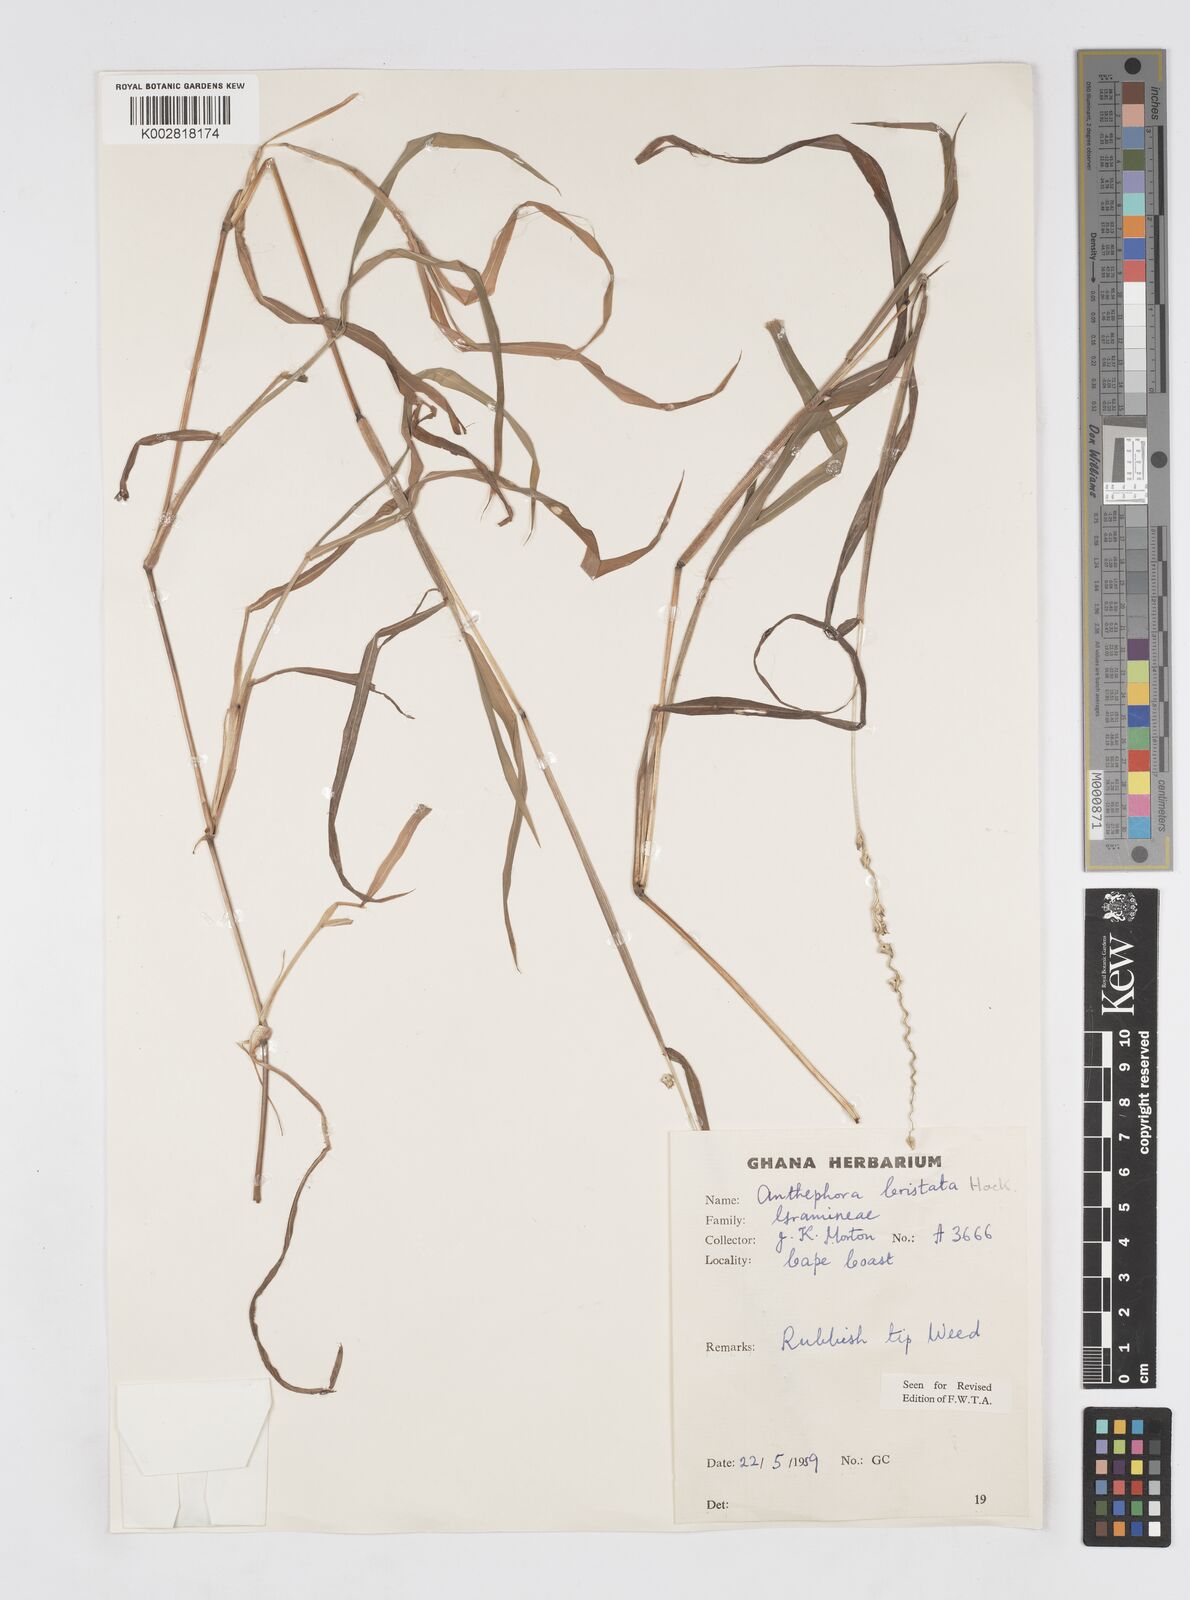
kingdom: Plantae
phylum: Tracheophyta
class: Liliopsida
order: Poales
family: Poaceae
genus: Anthephora
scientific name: Anthephora cristata
